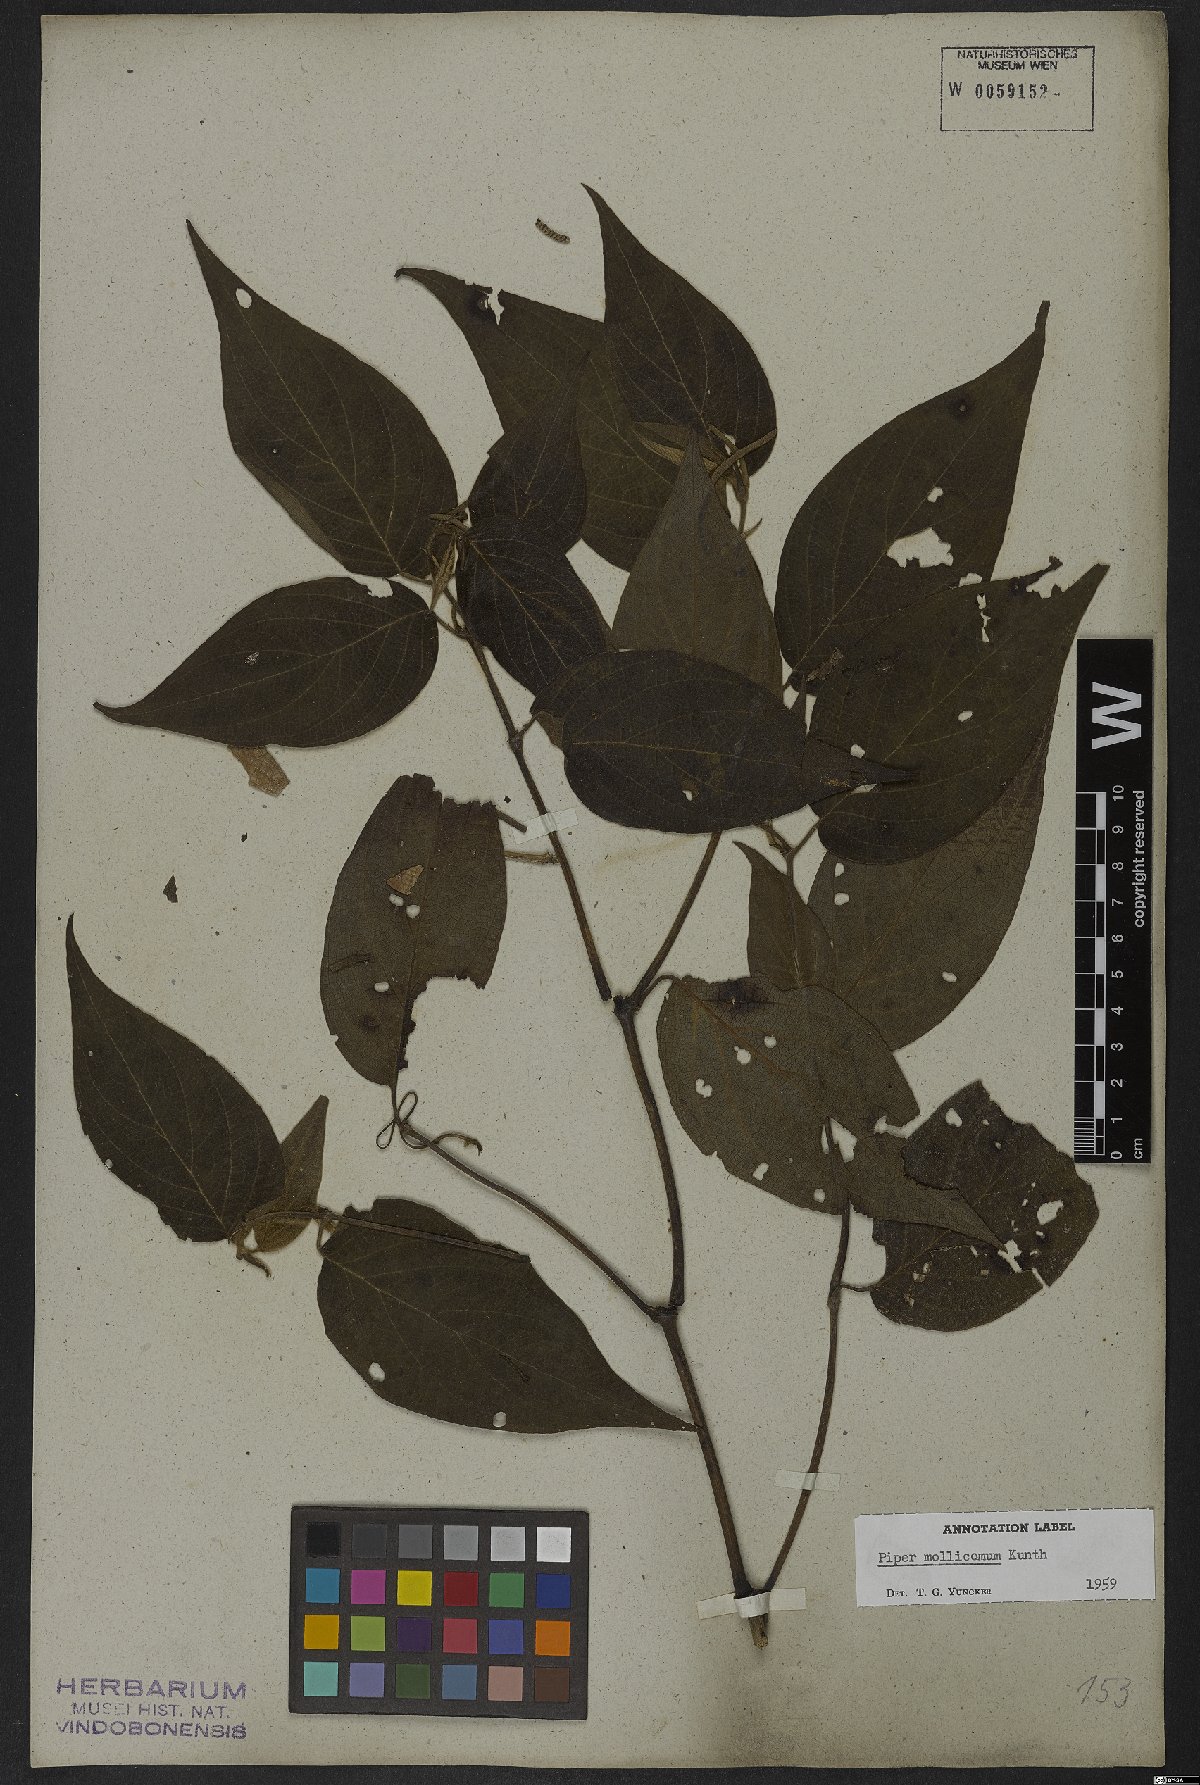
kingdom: Plantae
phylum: Tracheophyta
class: Magnoliopsida
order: Piperales
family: Piperaceae
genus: Piper
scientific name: Piper mollicomum
